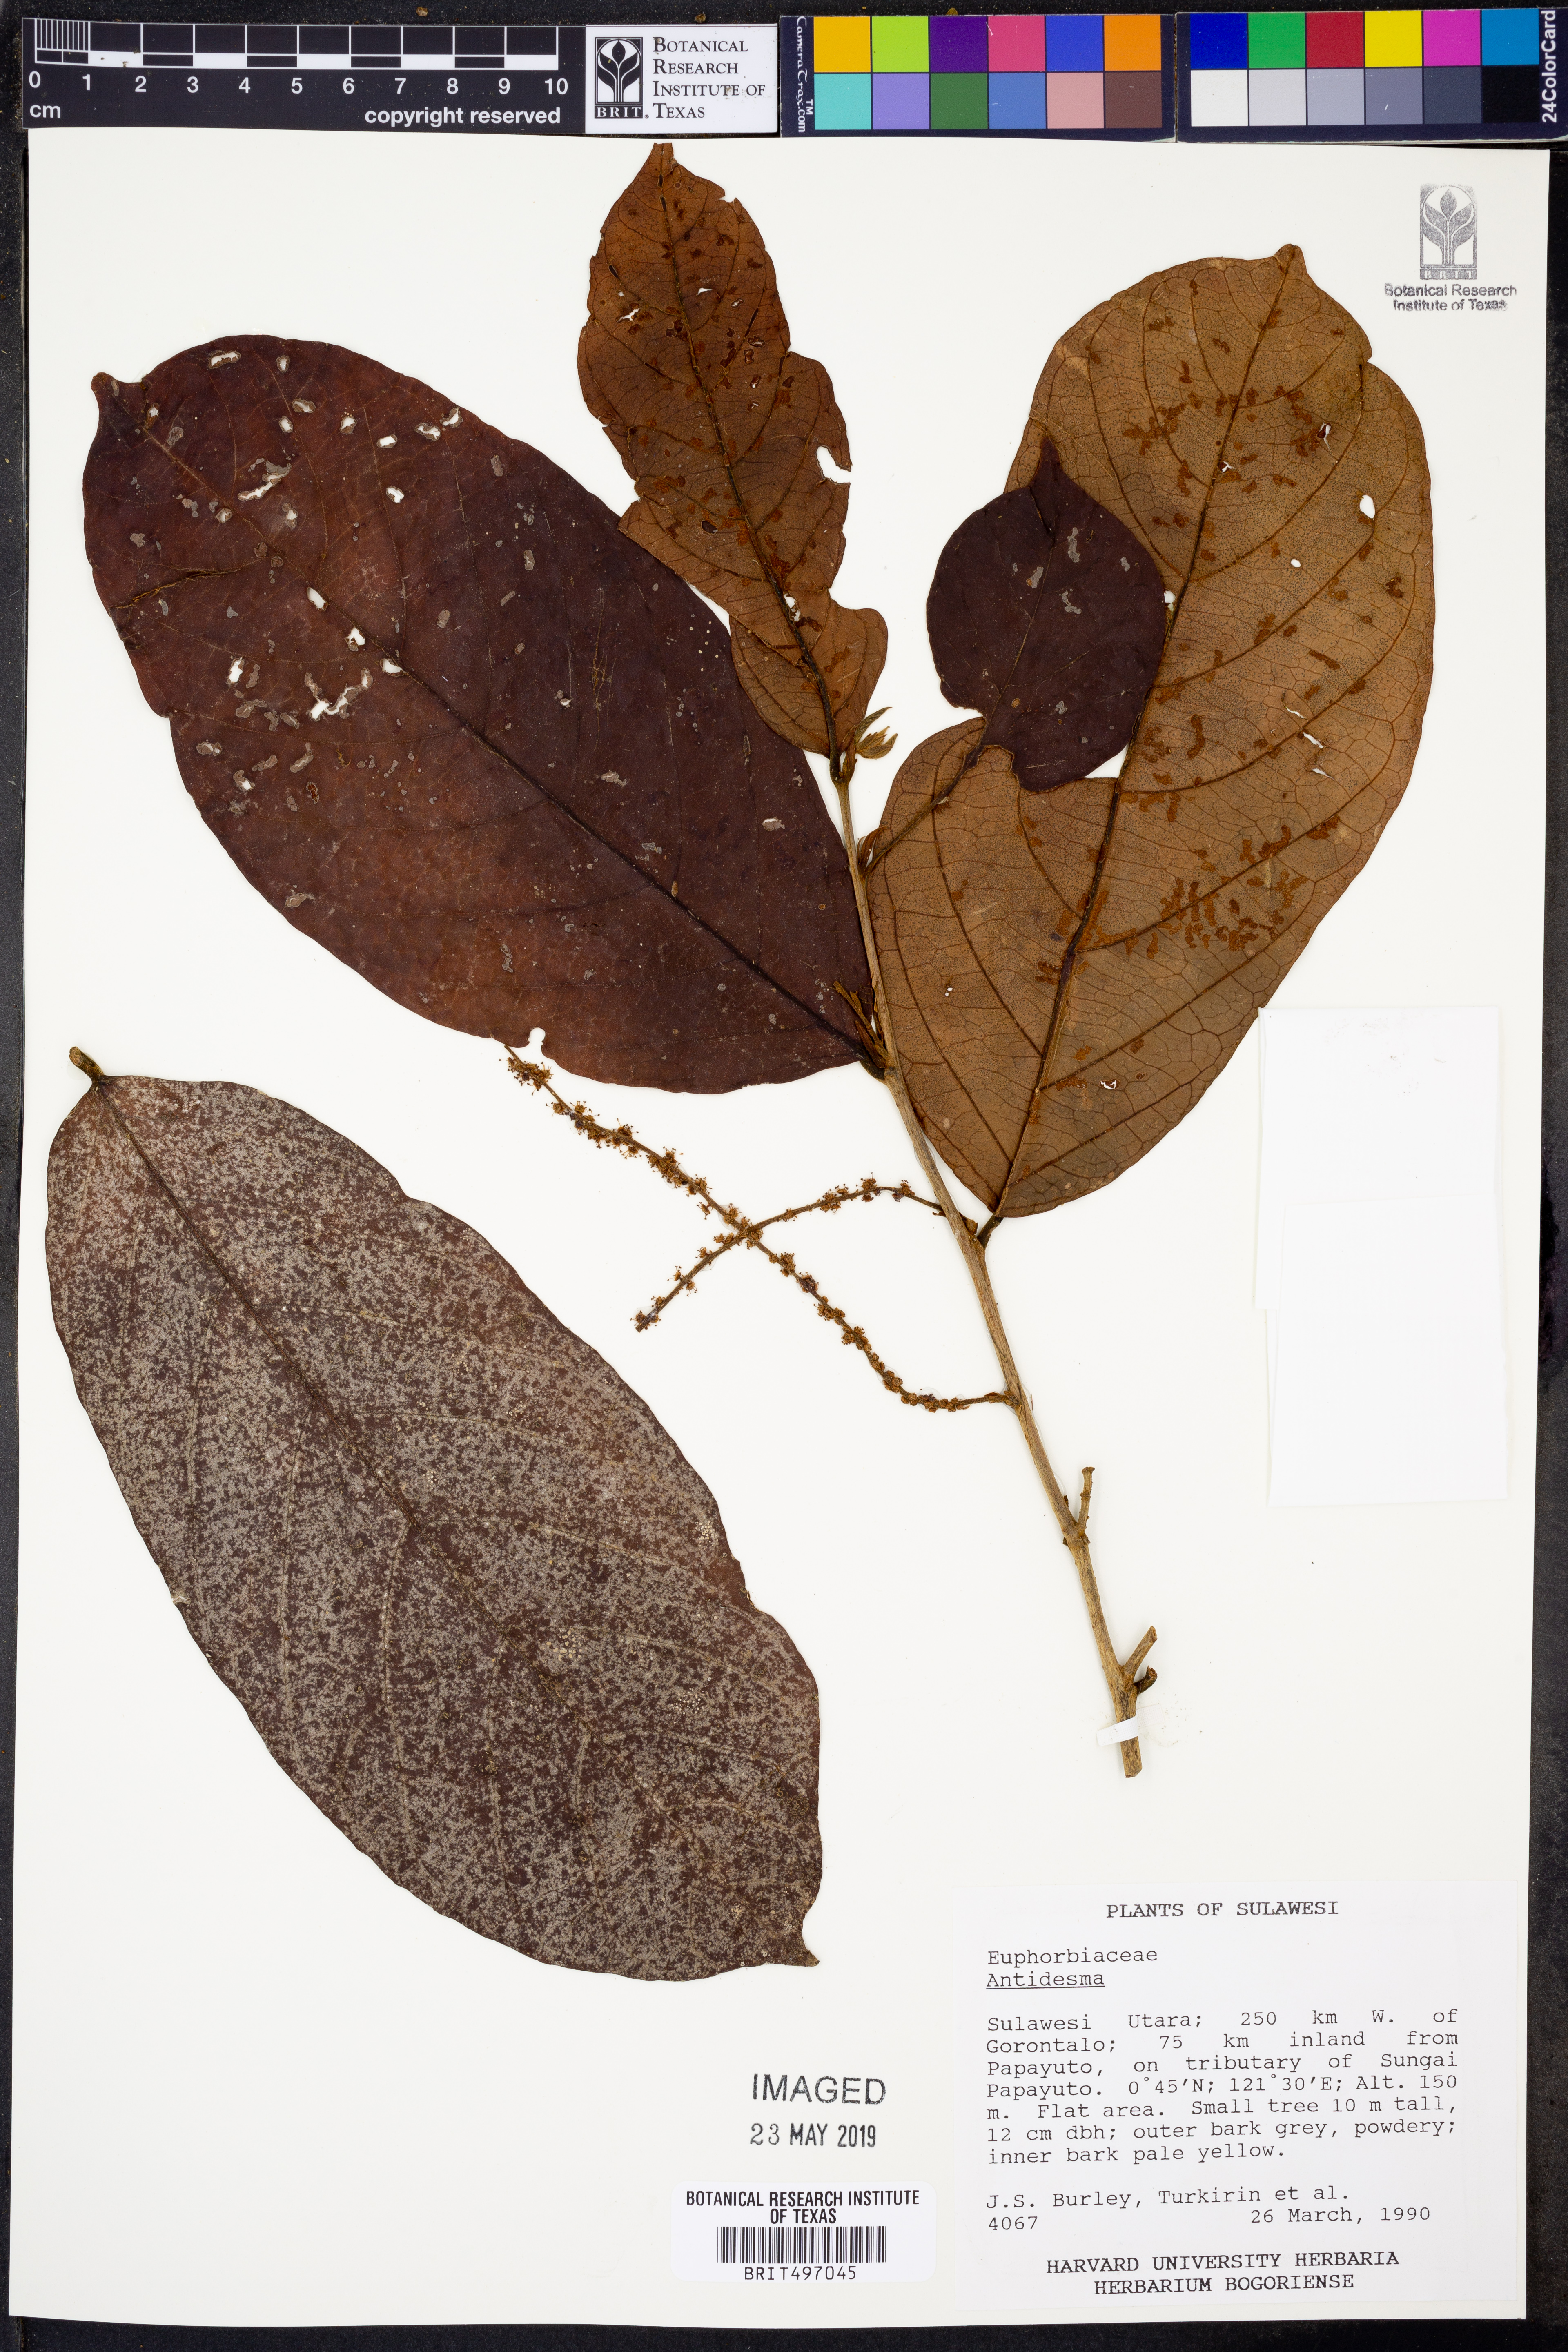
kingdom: Plantae
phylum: Tracheophyta
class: Magnoliopsida
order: Malpighiales
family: Phyllanthaceae
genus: Antidesma
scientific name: Antidesma
